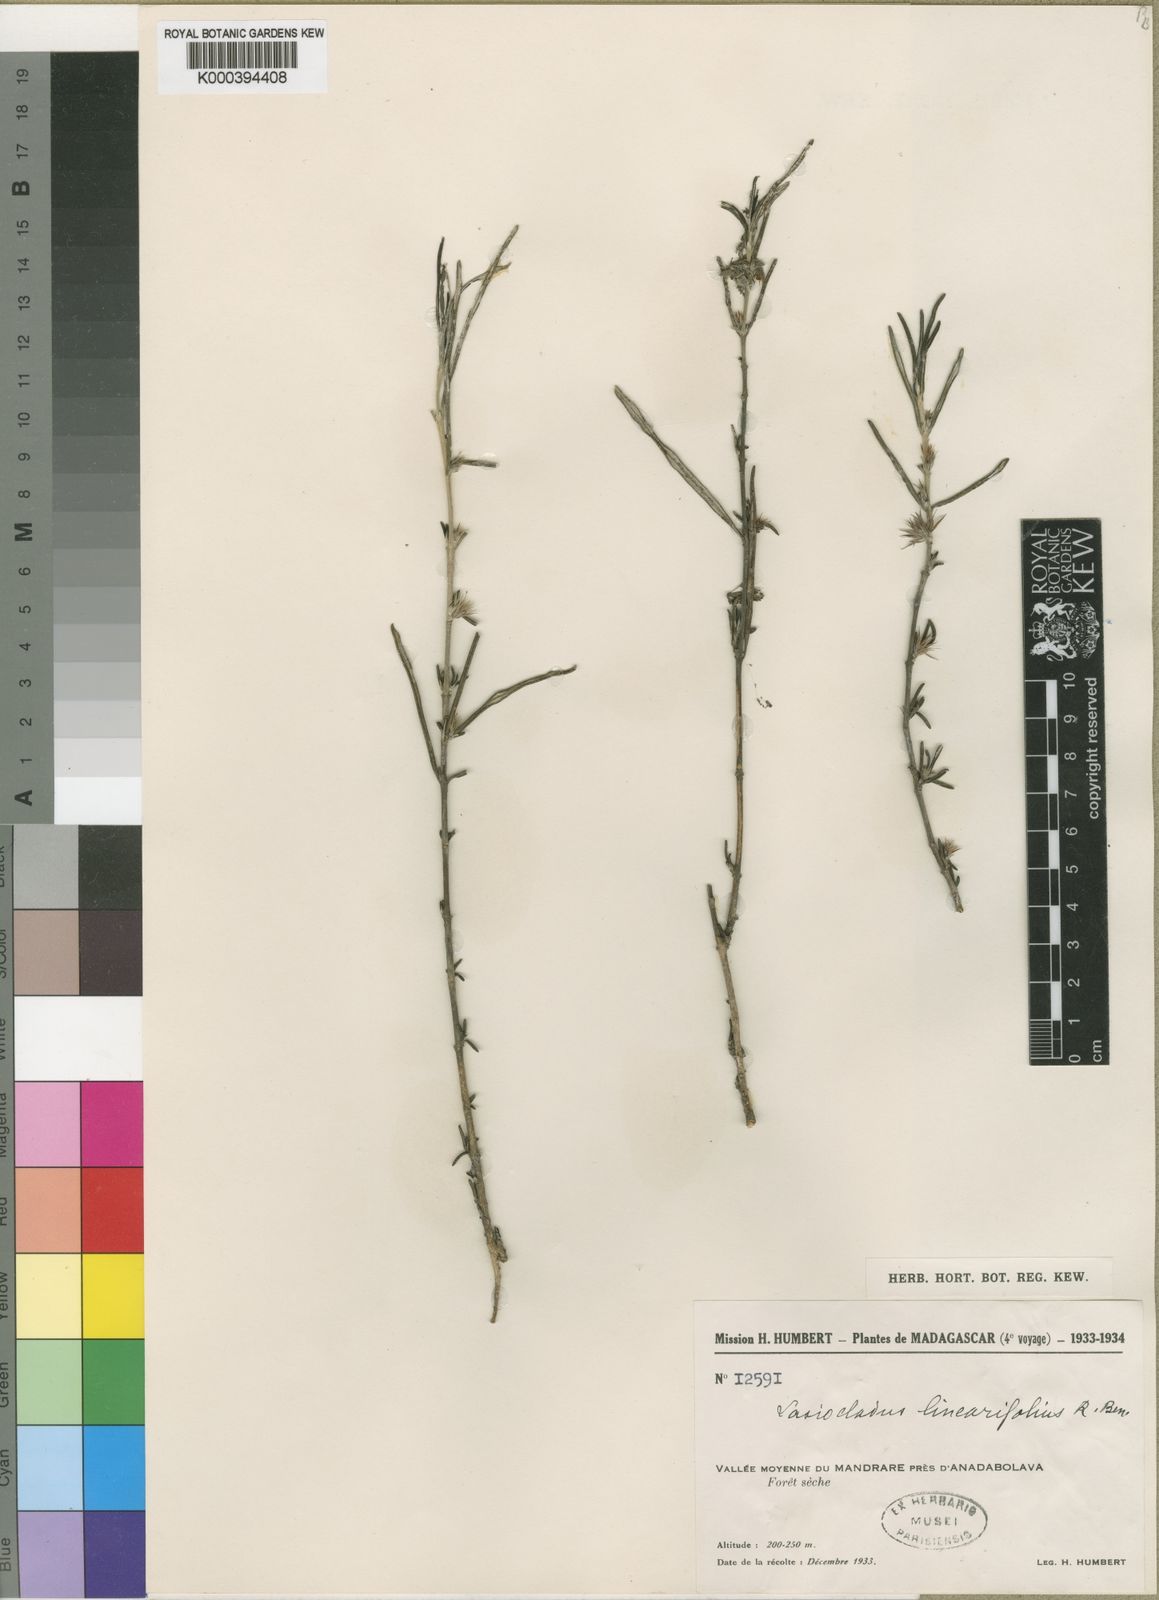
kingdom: Plantae
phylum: Tracheophyta
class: Magnoliopsida
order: Lamiales
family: Acanthaceae
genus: Lasiocladus
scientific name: Lasiocladus anthospermifolius
